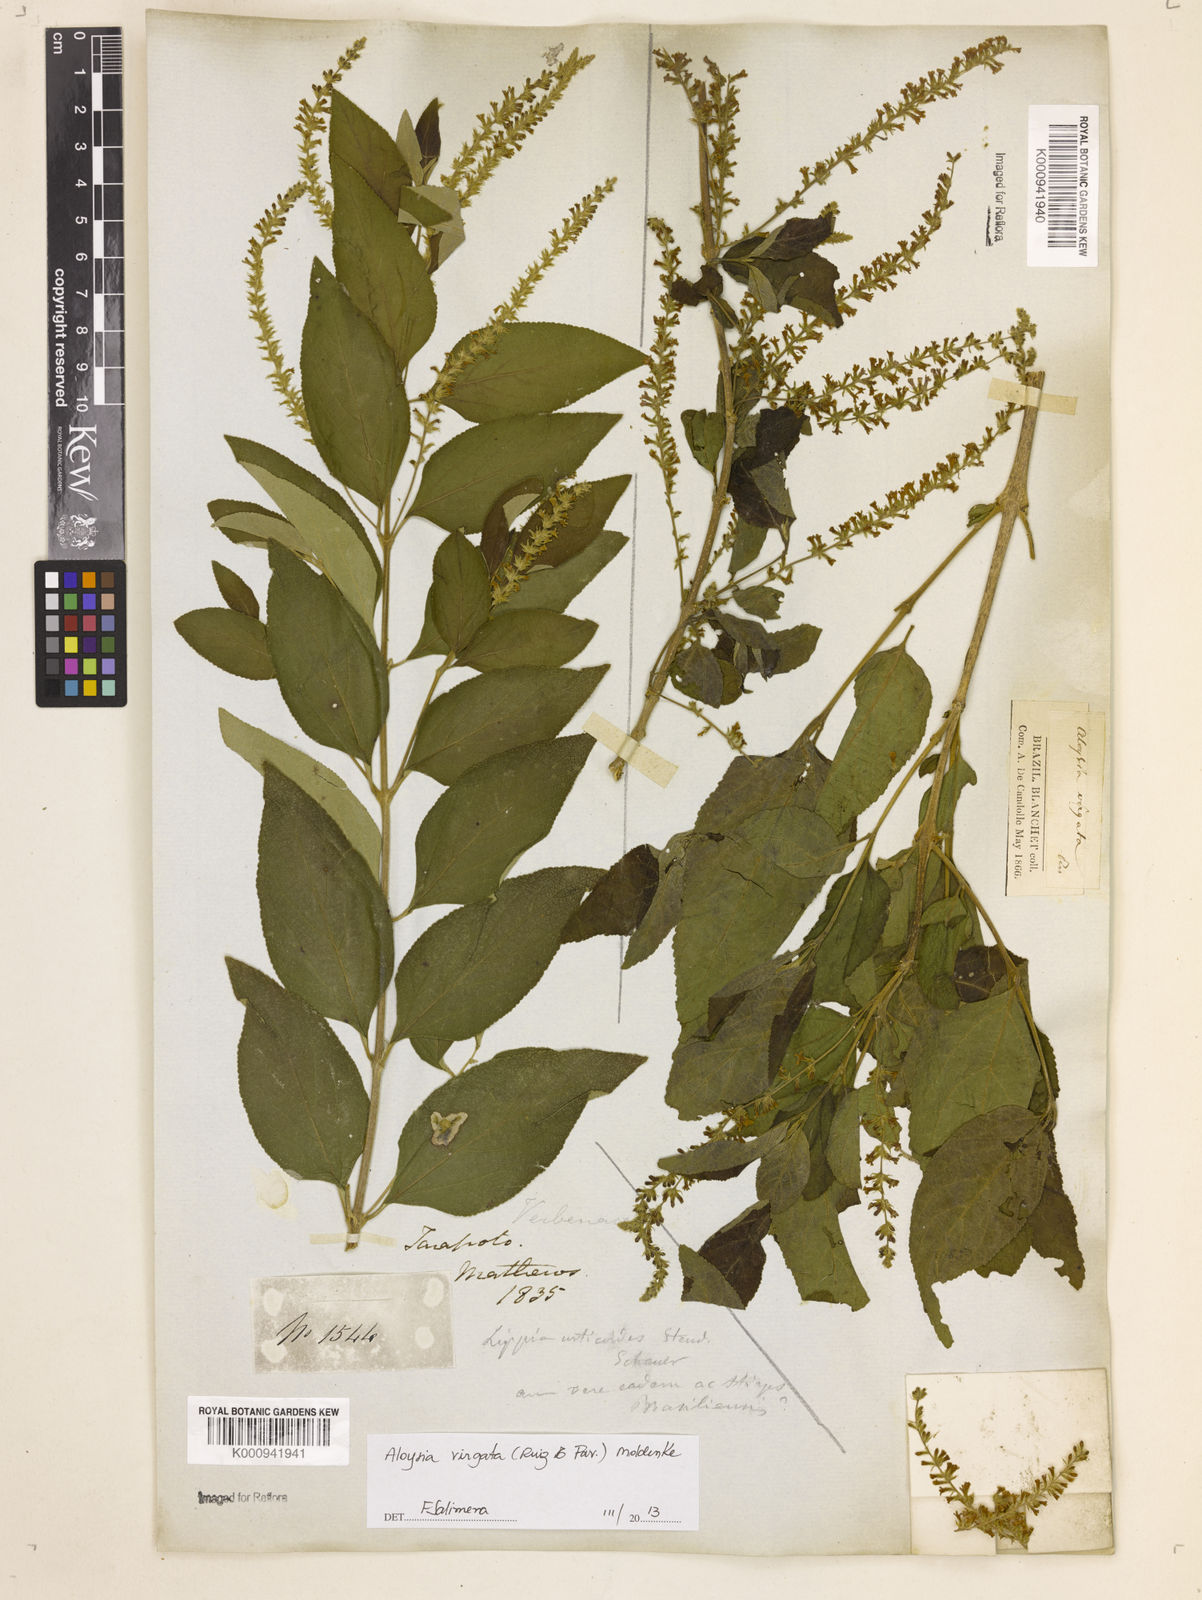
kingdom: Plantae
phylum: Tracheophyta
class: Magnoliopsida
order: Lamiales
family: Verbenaceae
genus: Aloysia
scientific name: Aloysia
